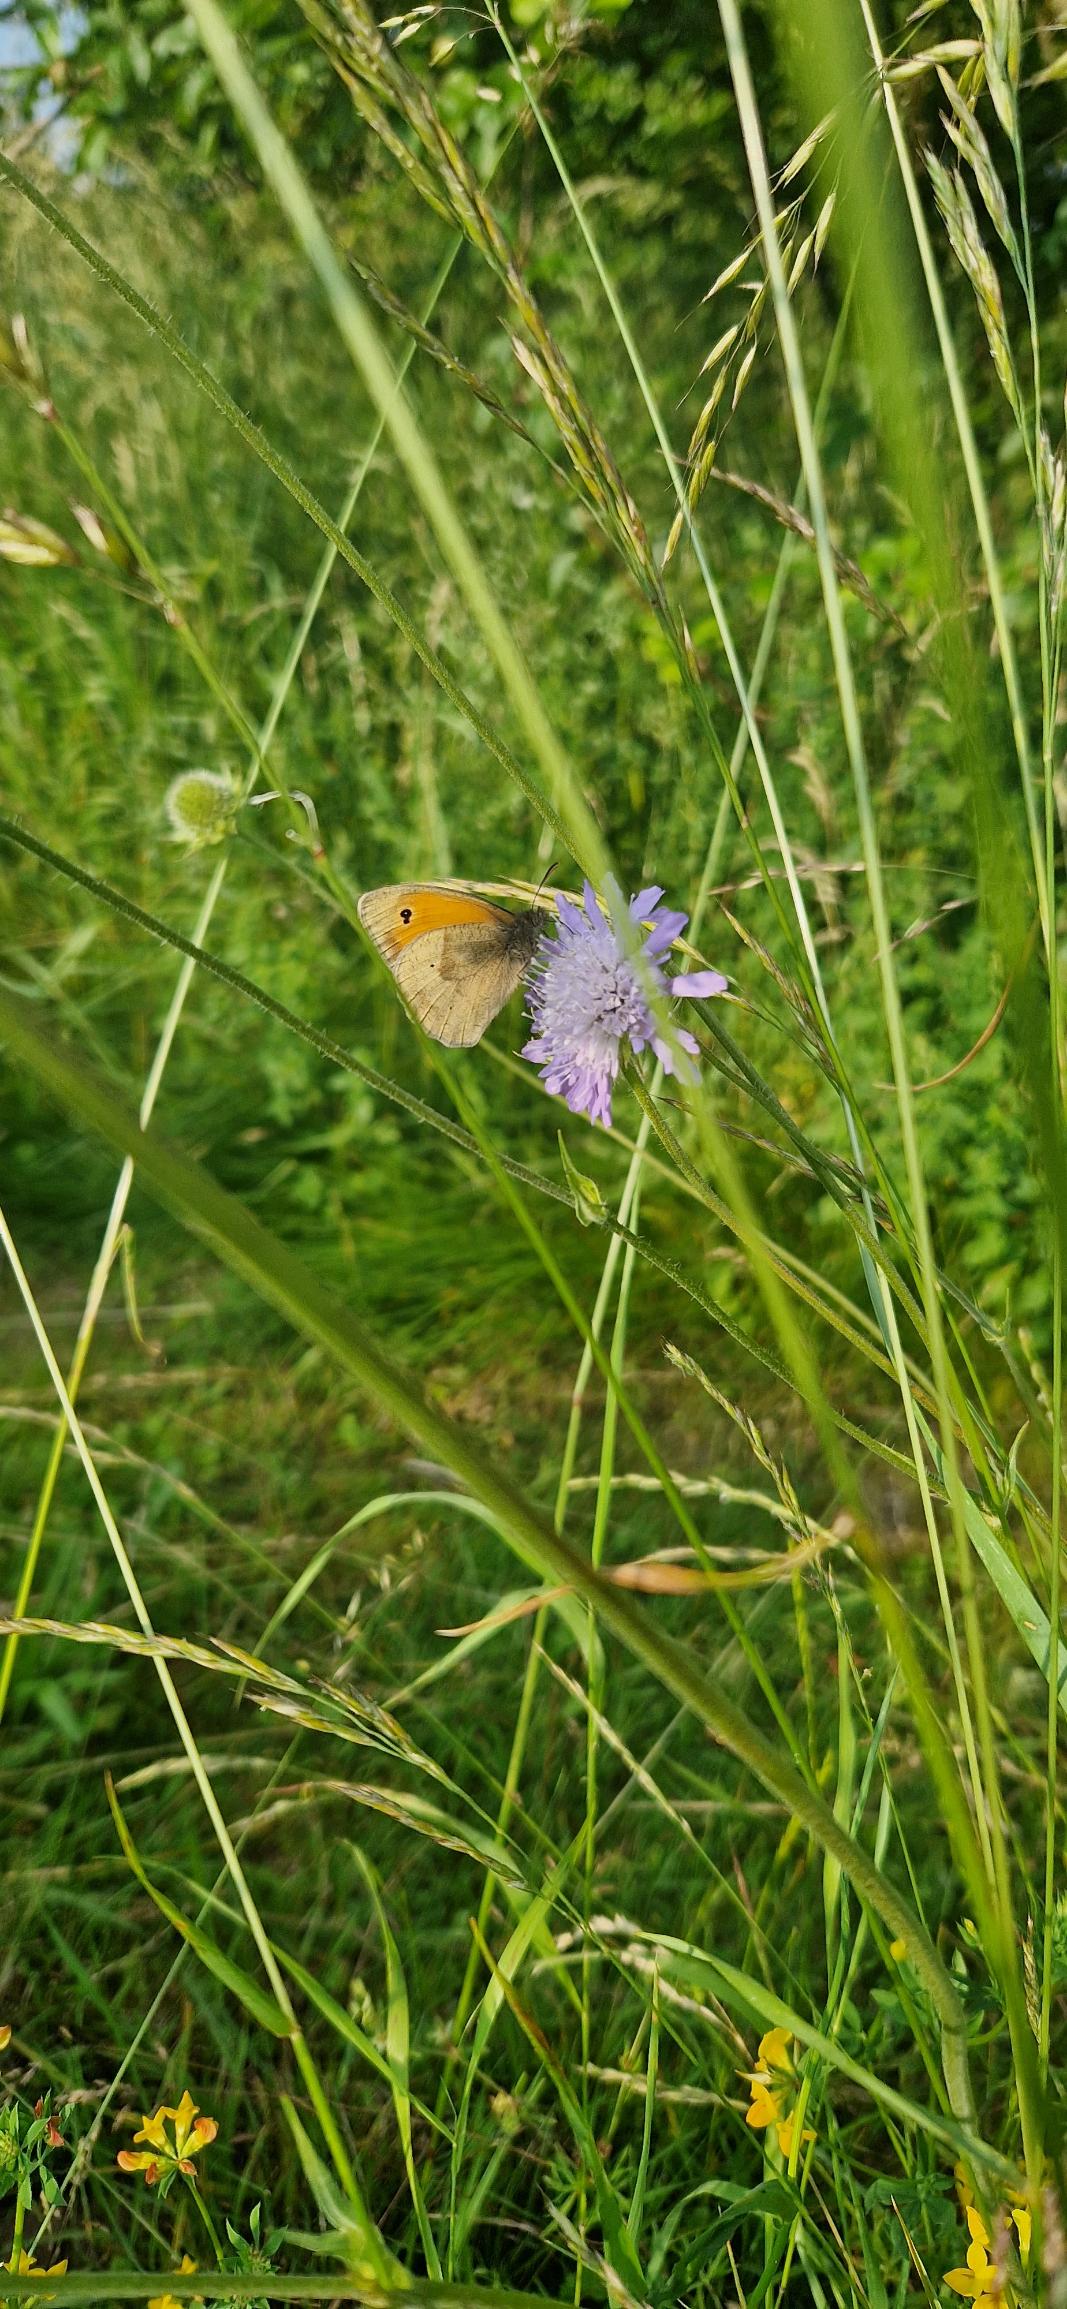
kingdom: Animalia
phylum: Arthropoda
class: Insecta
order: Lepidoptera
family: Nymphalidae
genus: Maniola
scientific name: Maniola jurtina
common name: Græsrandøje
